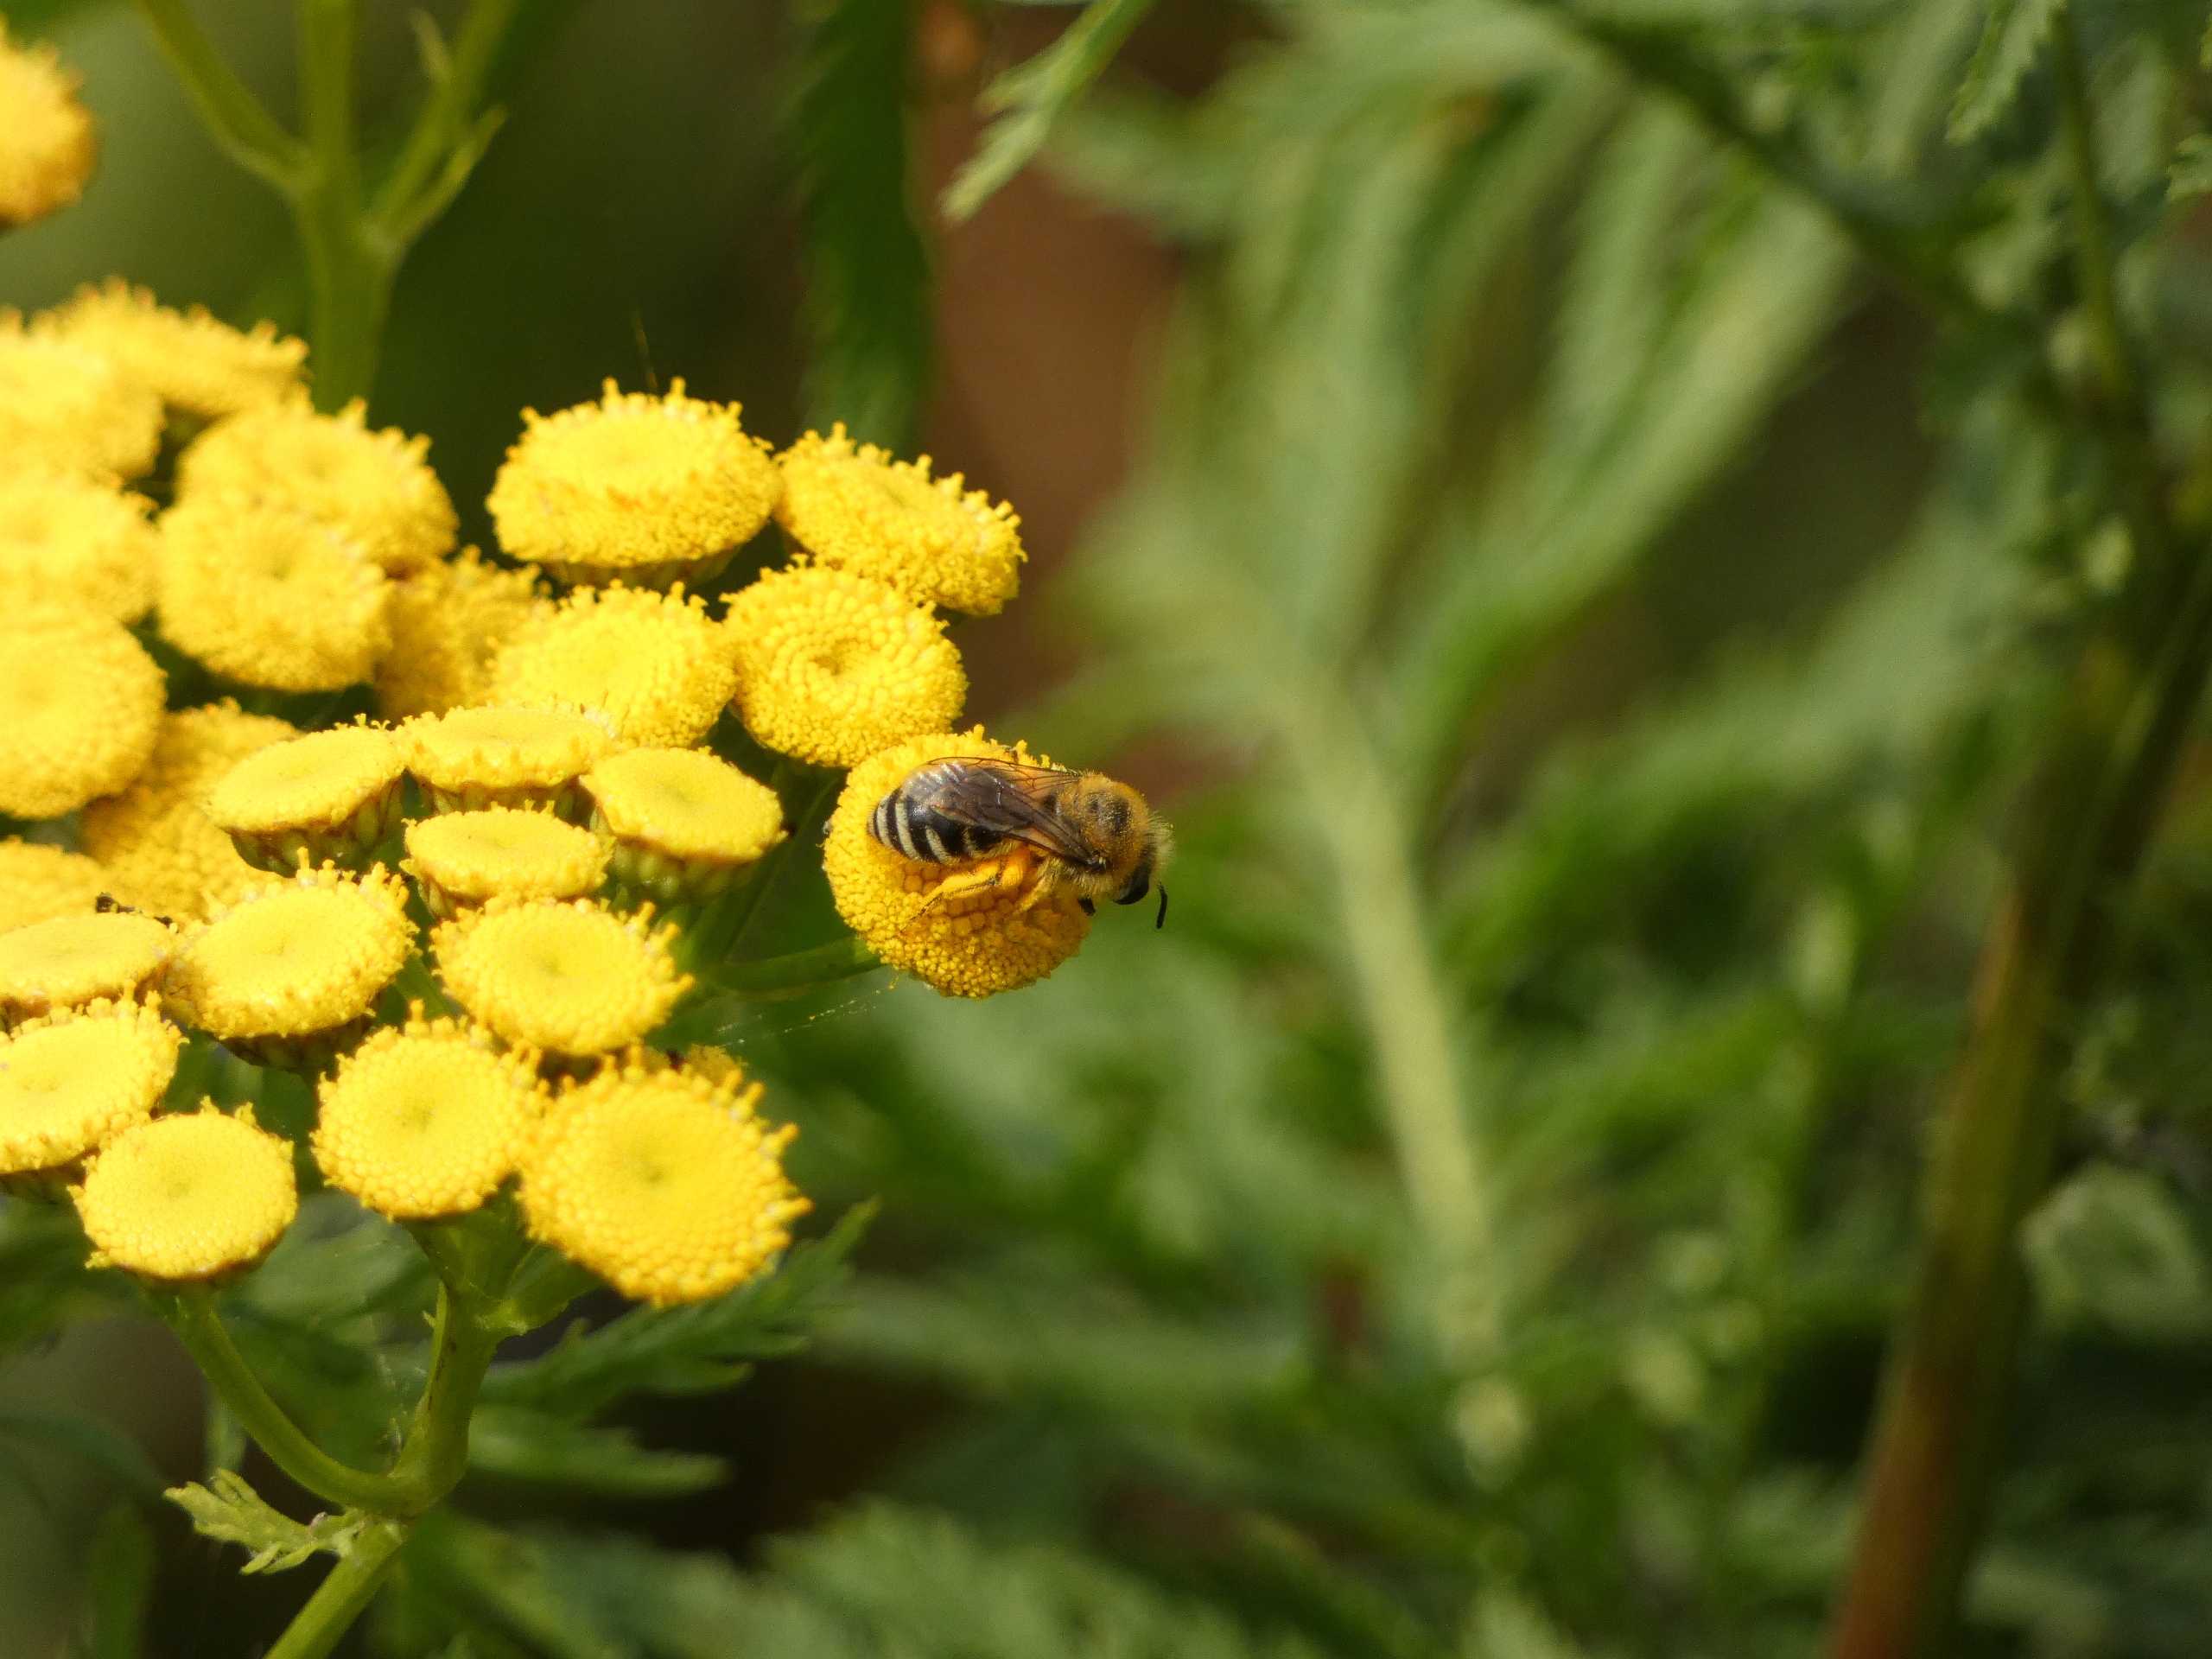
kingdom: Animalia
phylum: Arthropoda
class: Insecta
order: Hymenoptera
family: Melittidae
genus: Dasypoda
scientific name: Dasypoda hirtipes
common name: Pragtbuksebi
